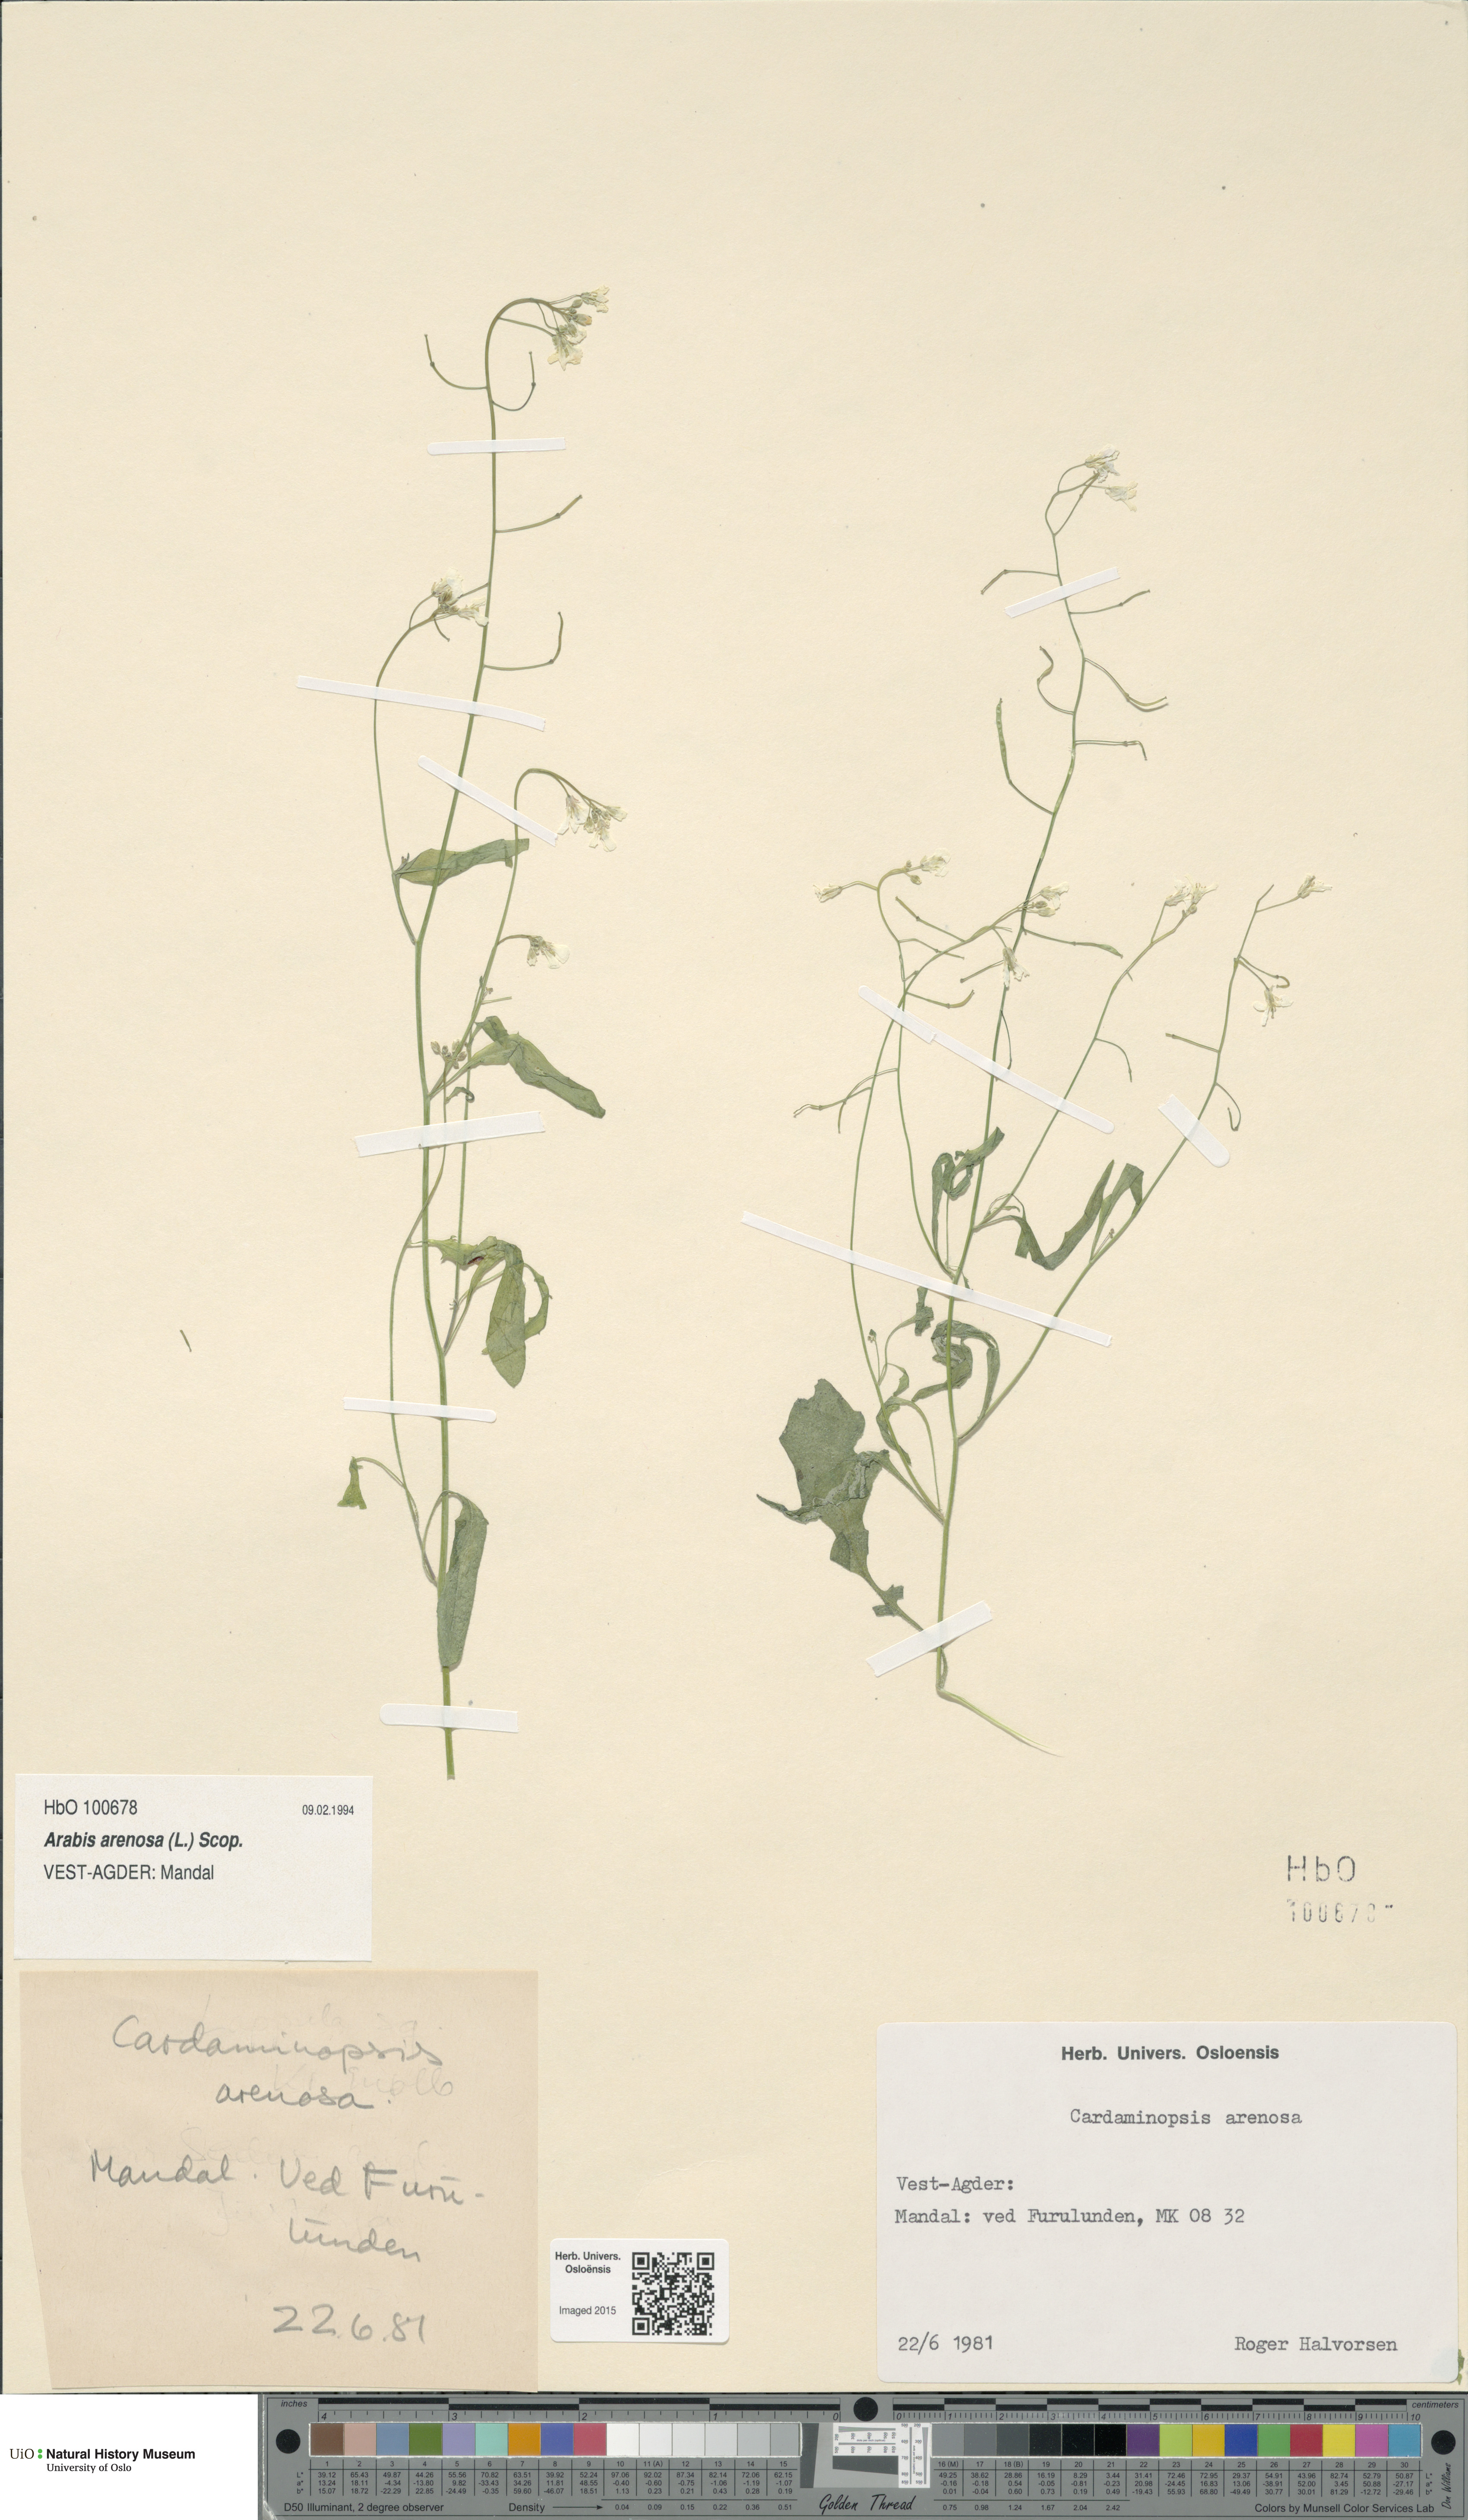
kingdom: Plantae
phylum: Tracheophyta
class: Magnoliopsida
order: Brassicales
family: Brassicaceae
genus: Arabidopsis
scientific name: Arabidopsis arenosa
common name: Sand rock-cress
